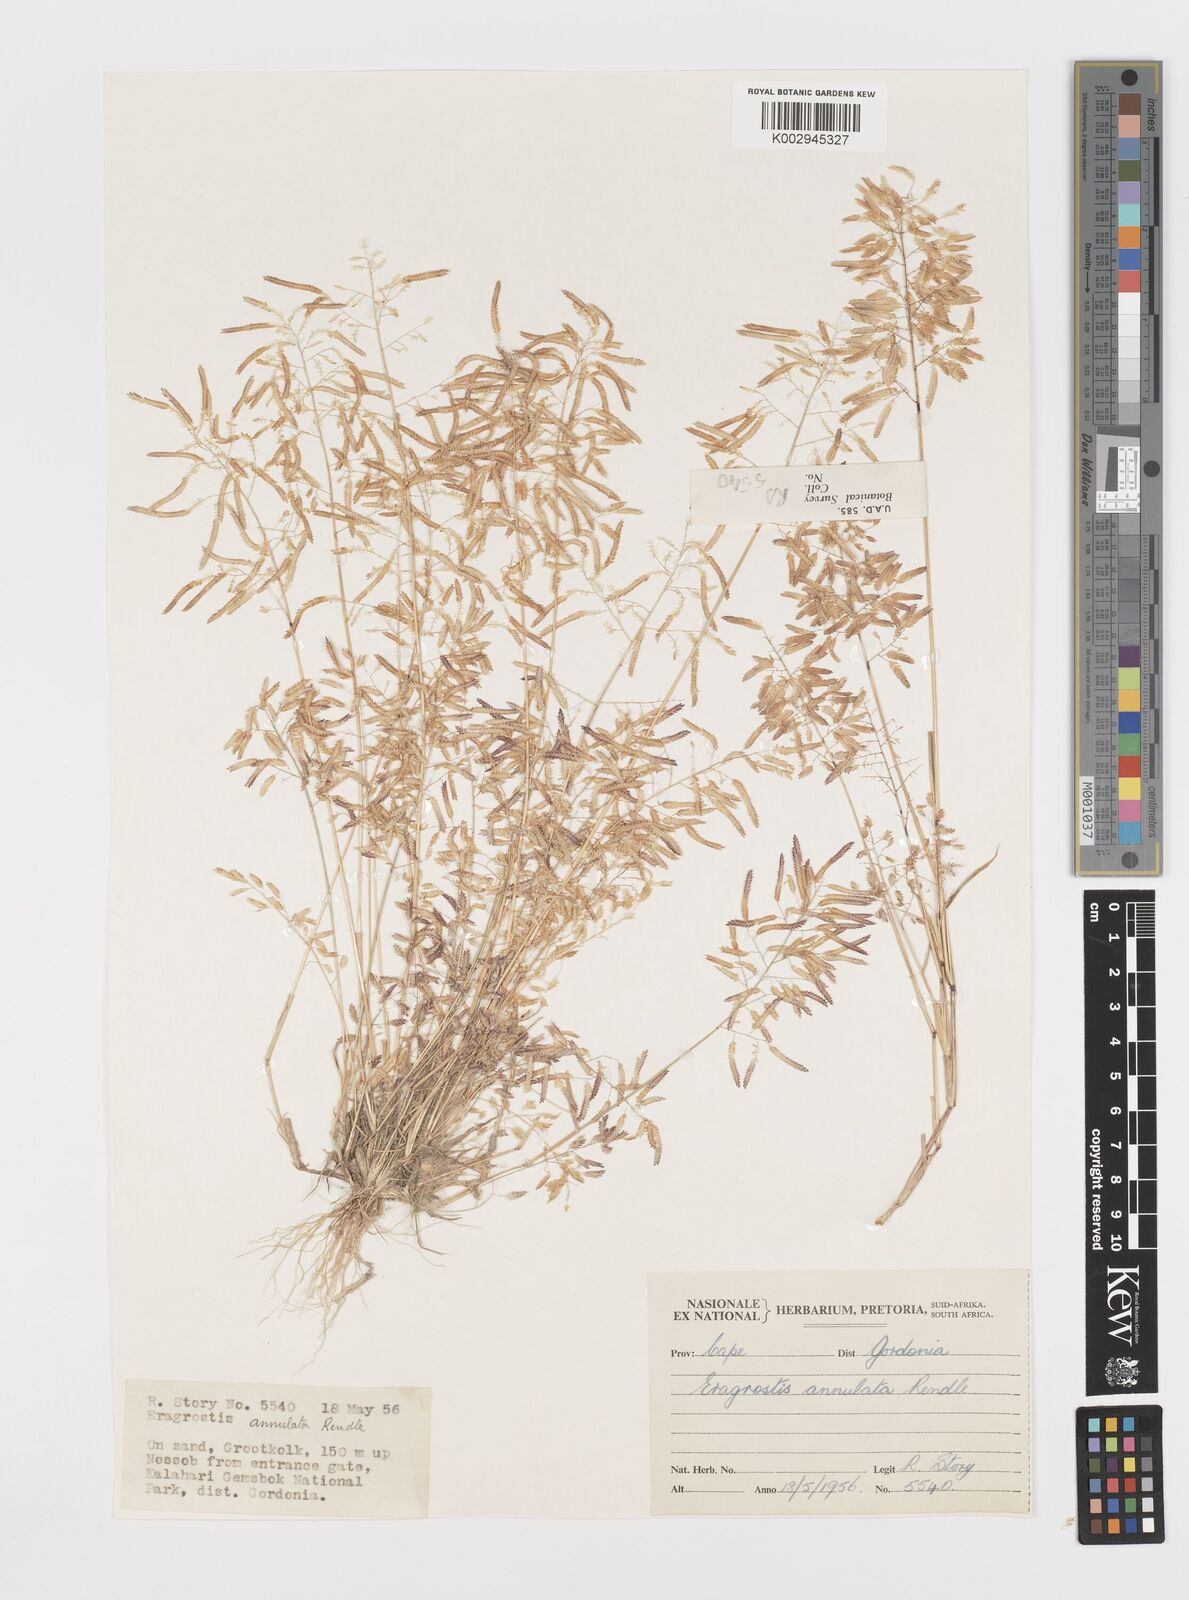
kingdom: Plantae
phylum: Tracheophyta
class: Liliopsida
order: Poales
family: Poaceae
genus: Eragrostis
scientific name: Eragrostis annulata
